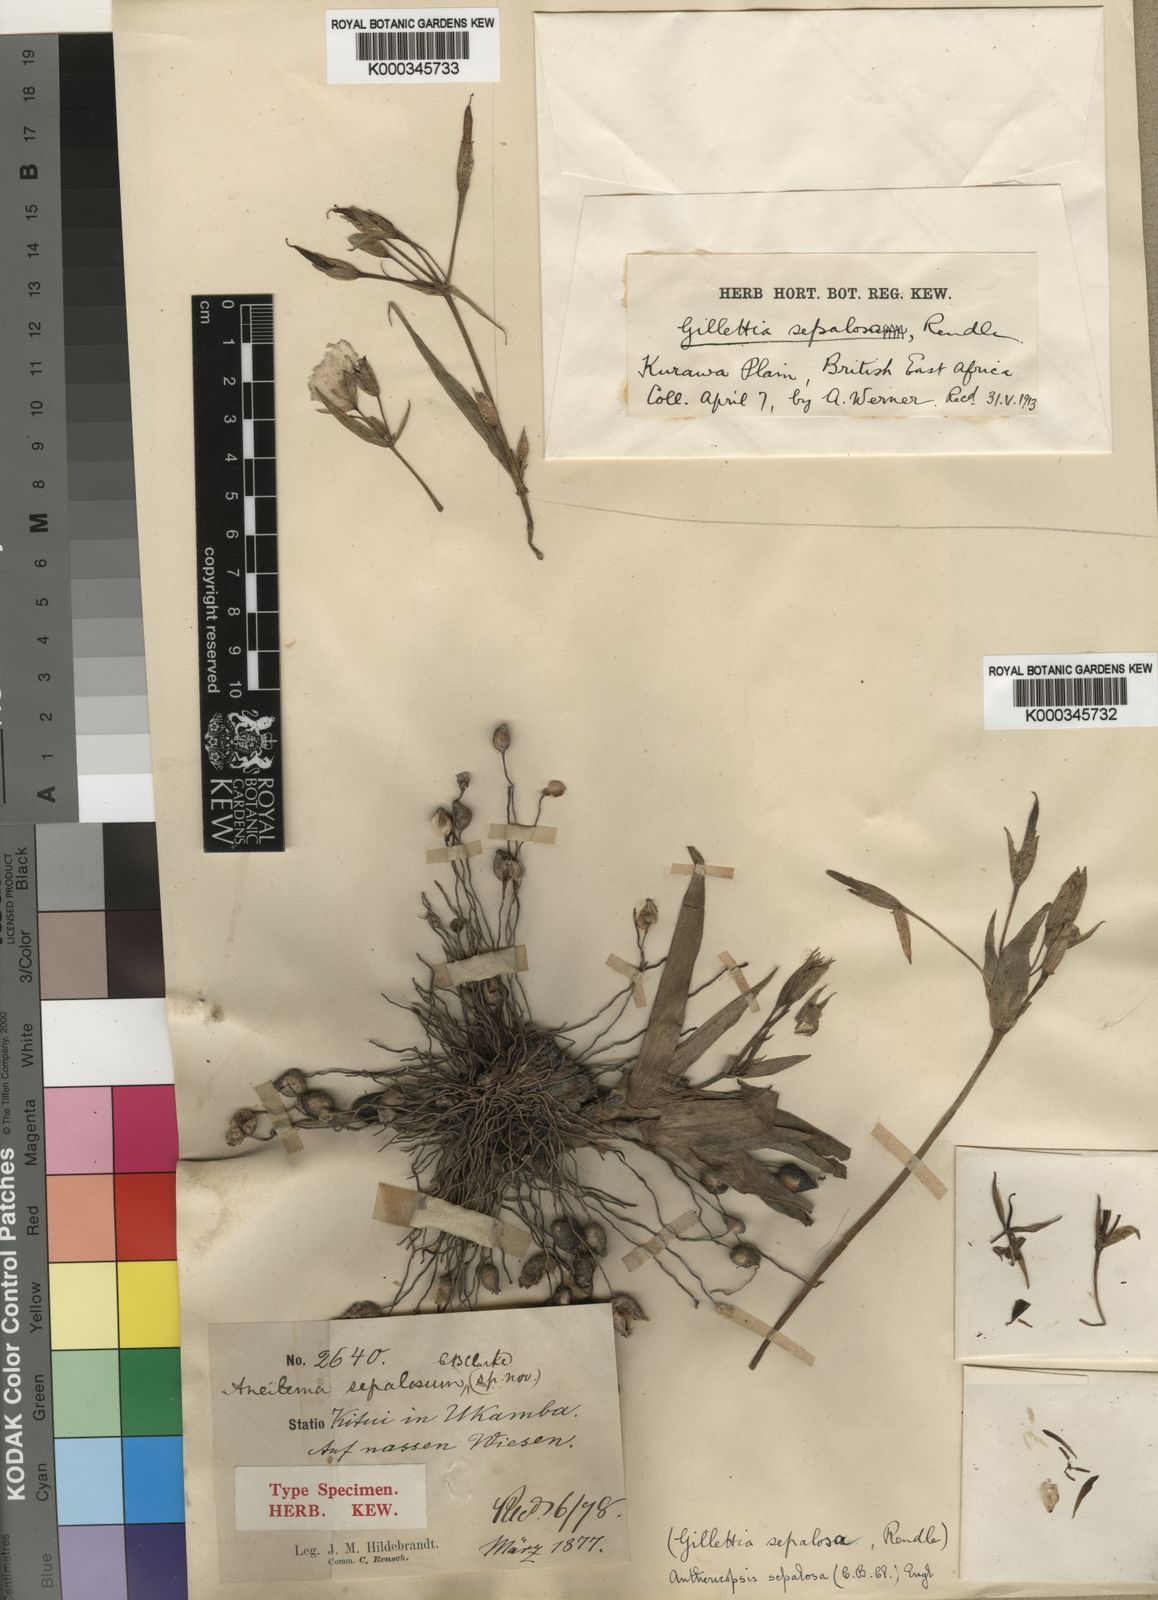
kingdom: Plantae
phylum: Tracheophyta
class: Liliopsida
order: Commelinales
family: Commelinaceae
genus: Anthericopsis
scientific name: Anthericopsis sepalosa
